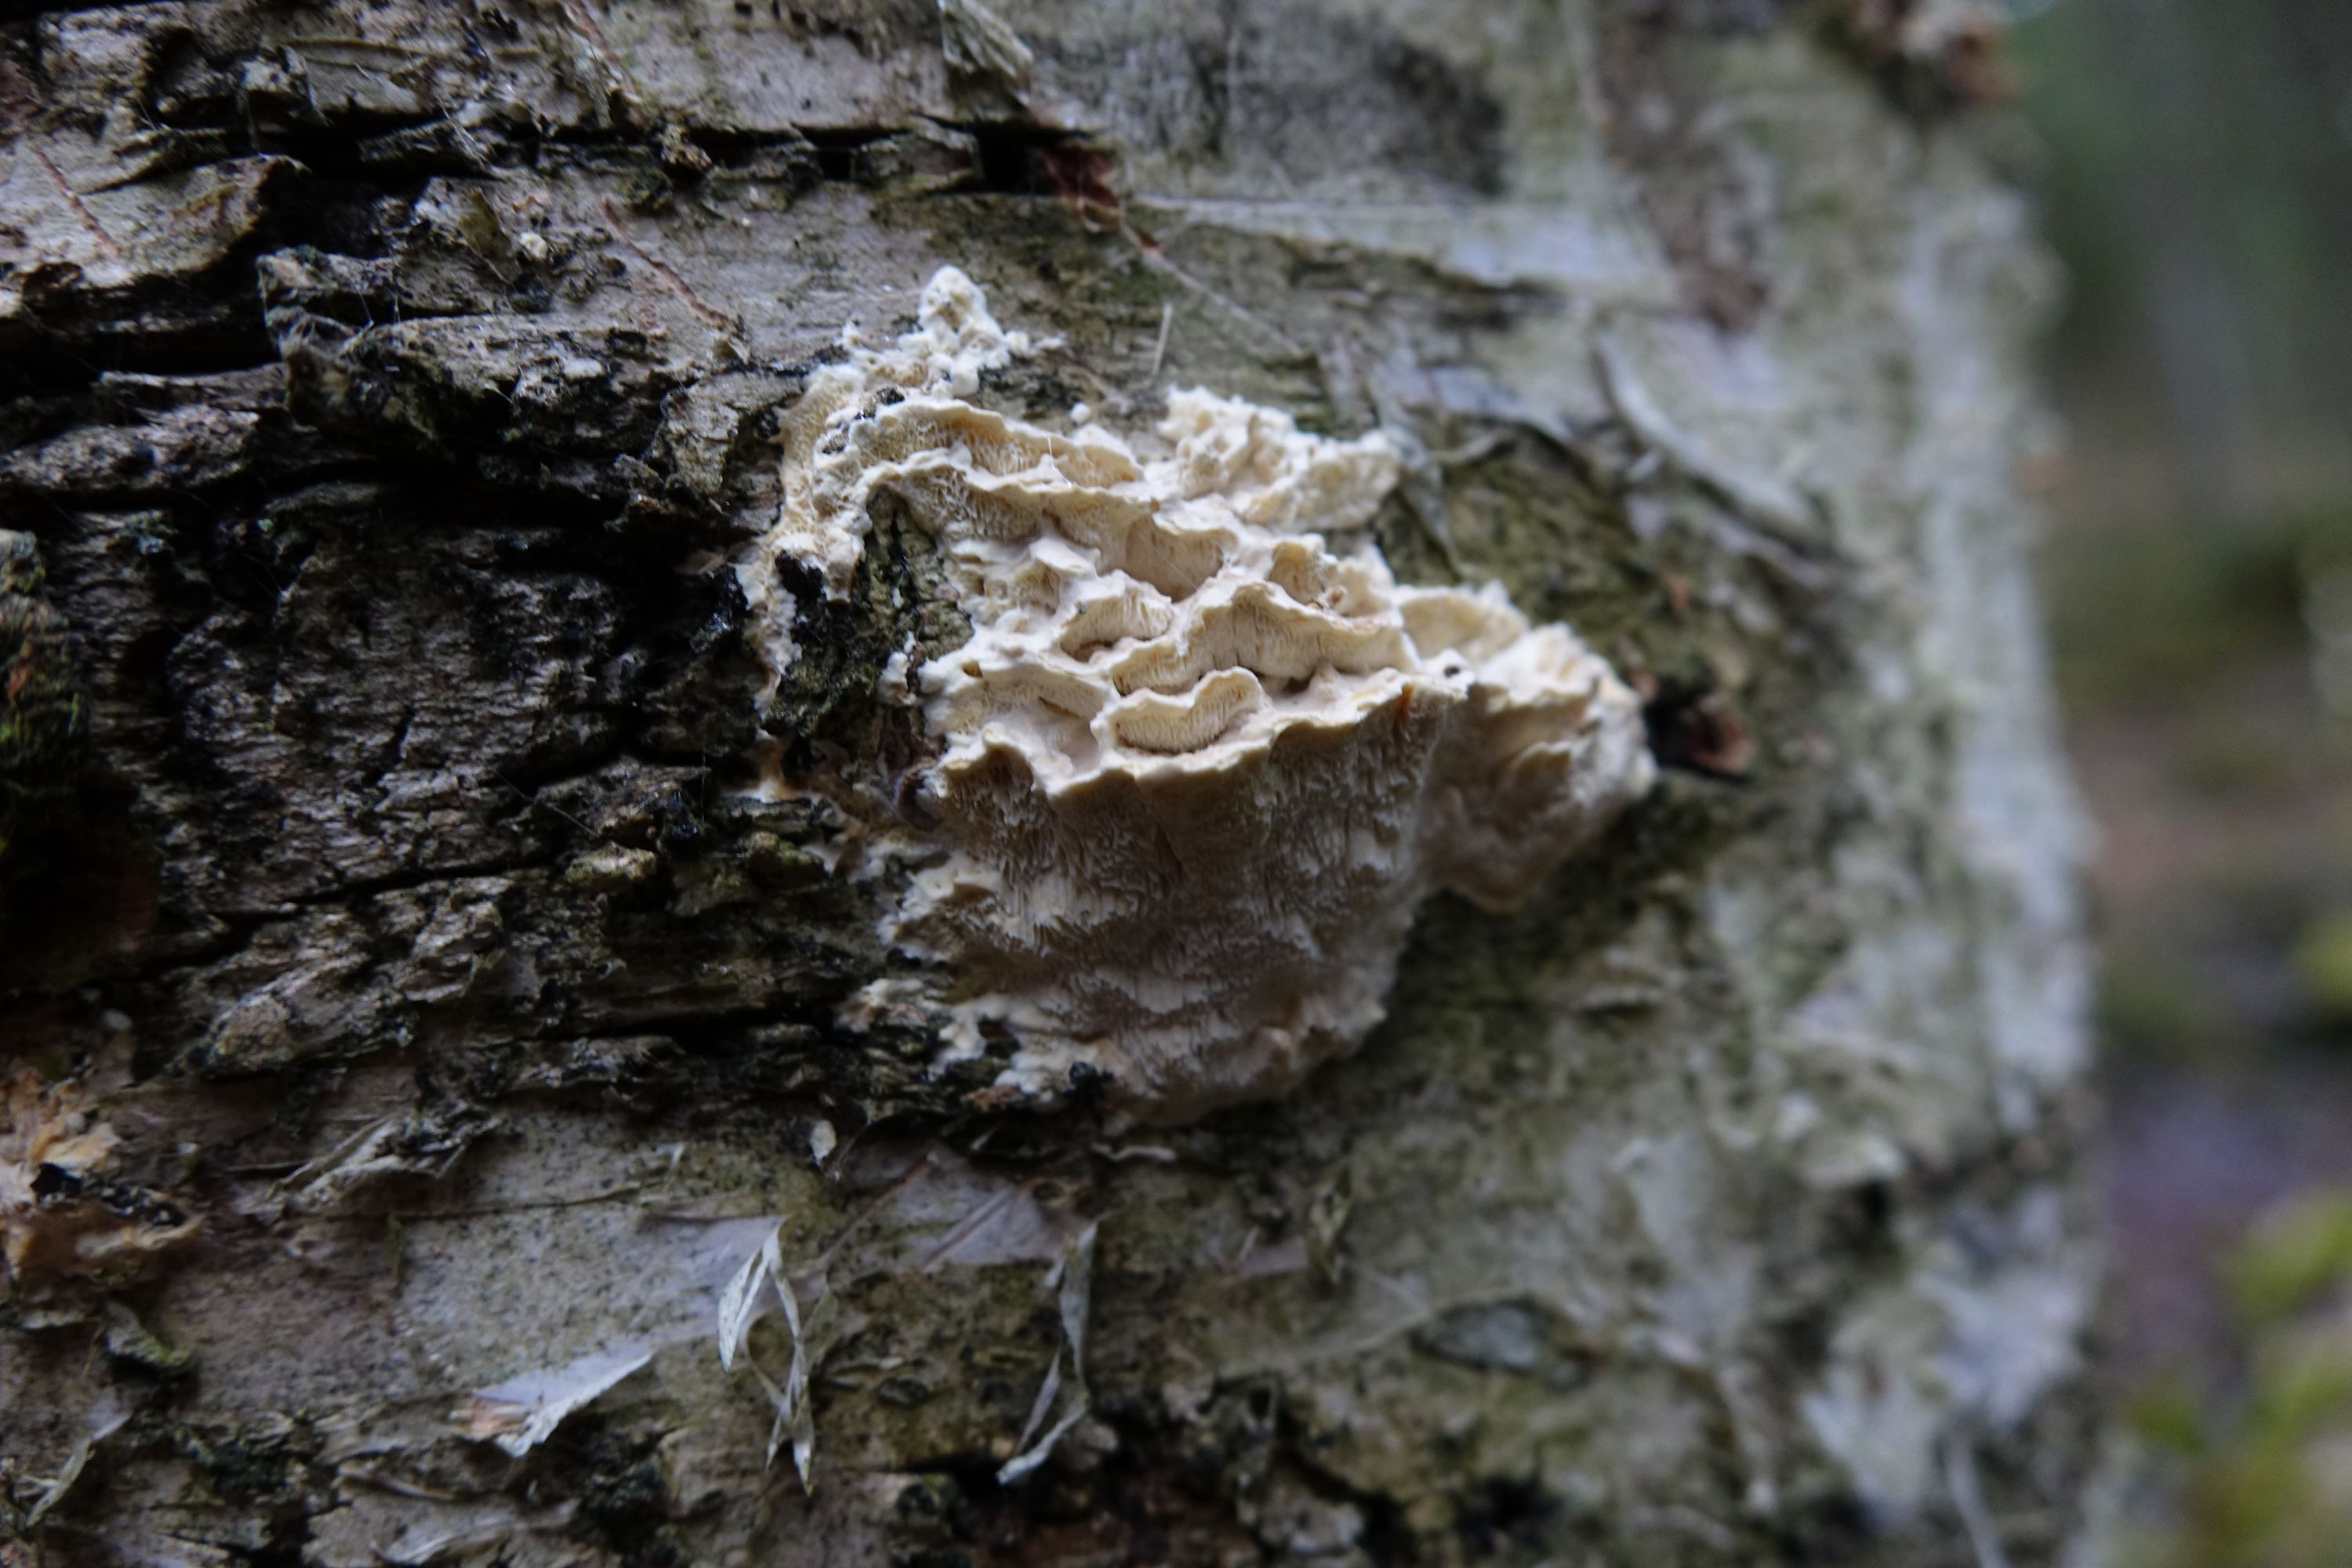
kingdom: Fungi
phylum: Basidiomycota
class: Agaricomycetes
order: Polyporales
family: Steccherinaceae
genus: Antrodiella
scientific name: Antrodiella pallescens
